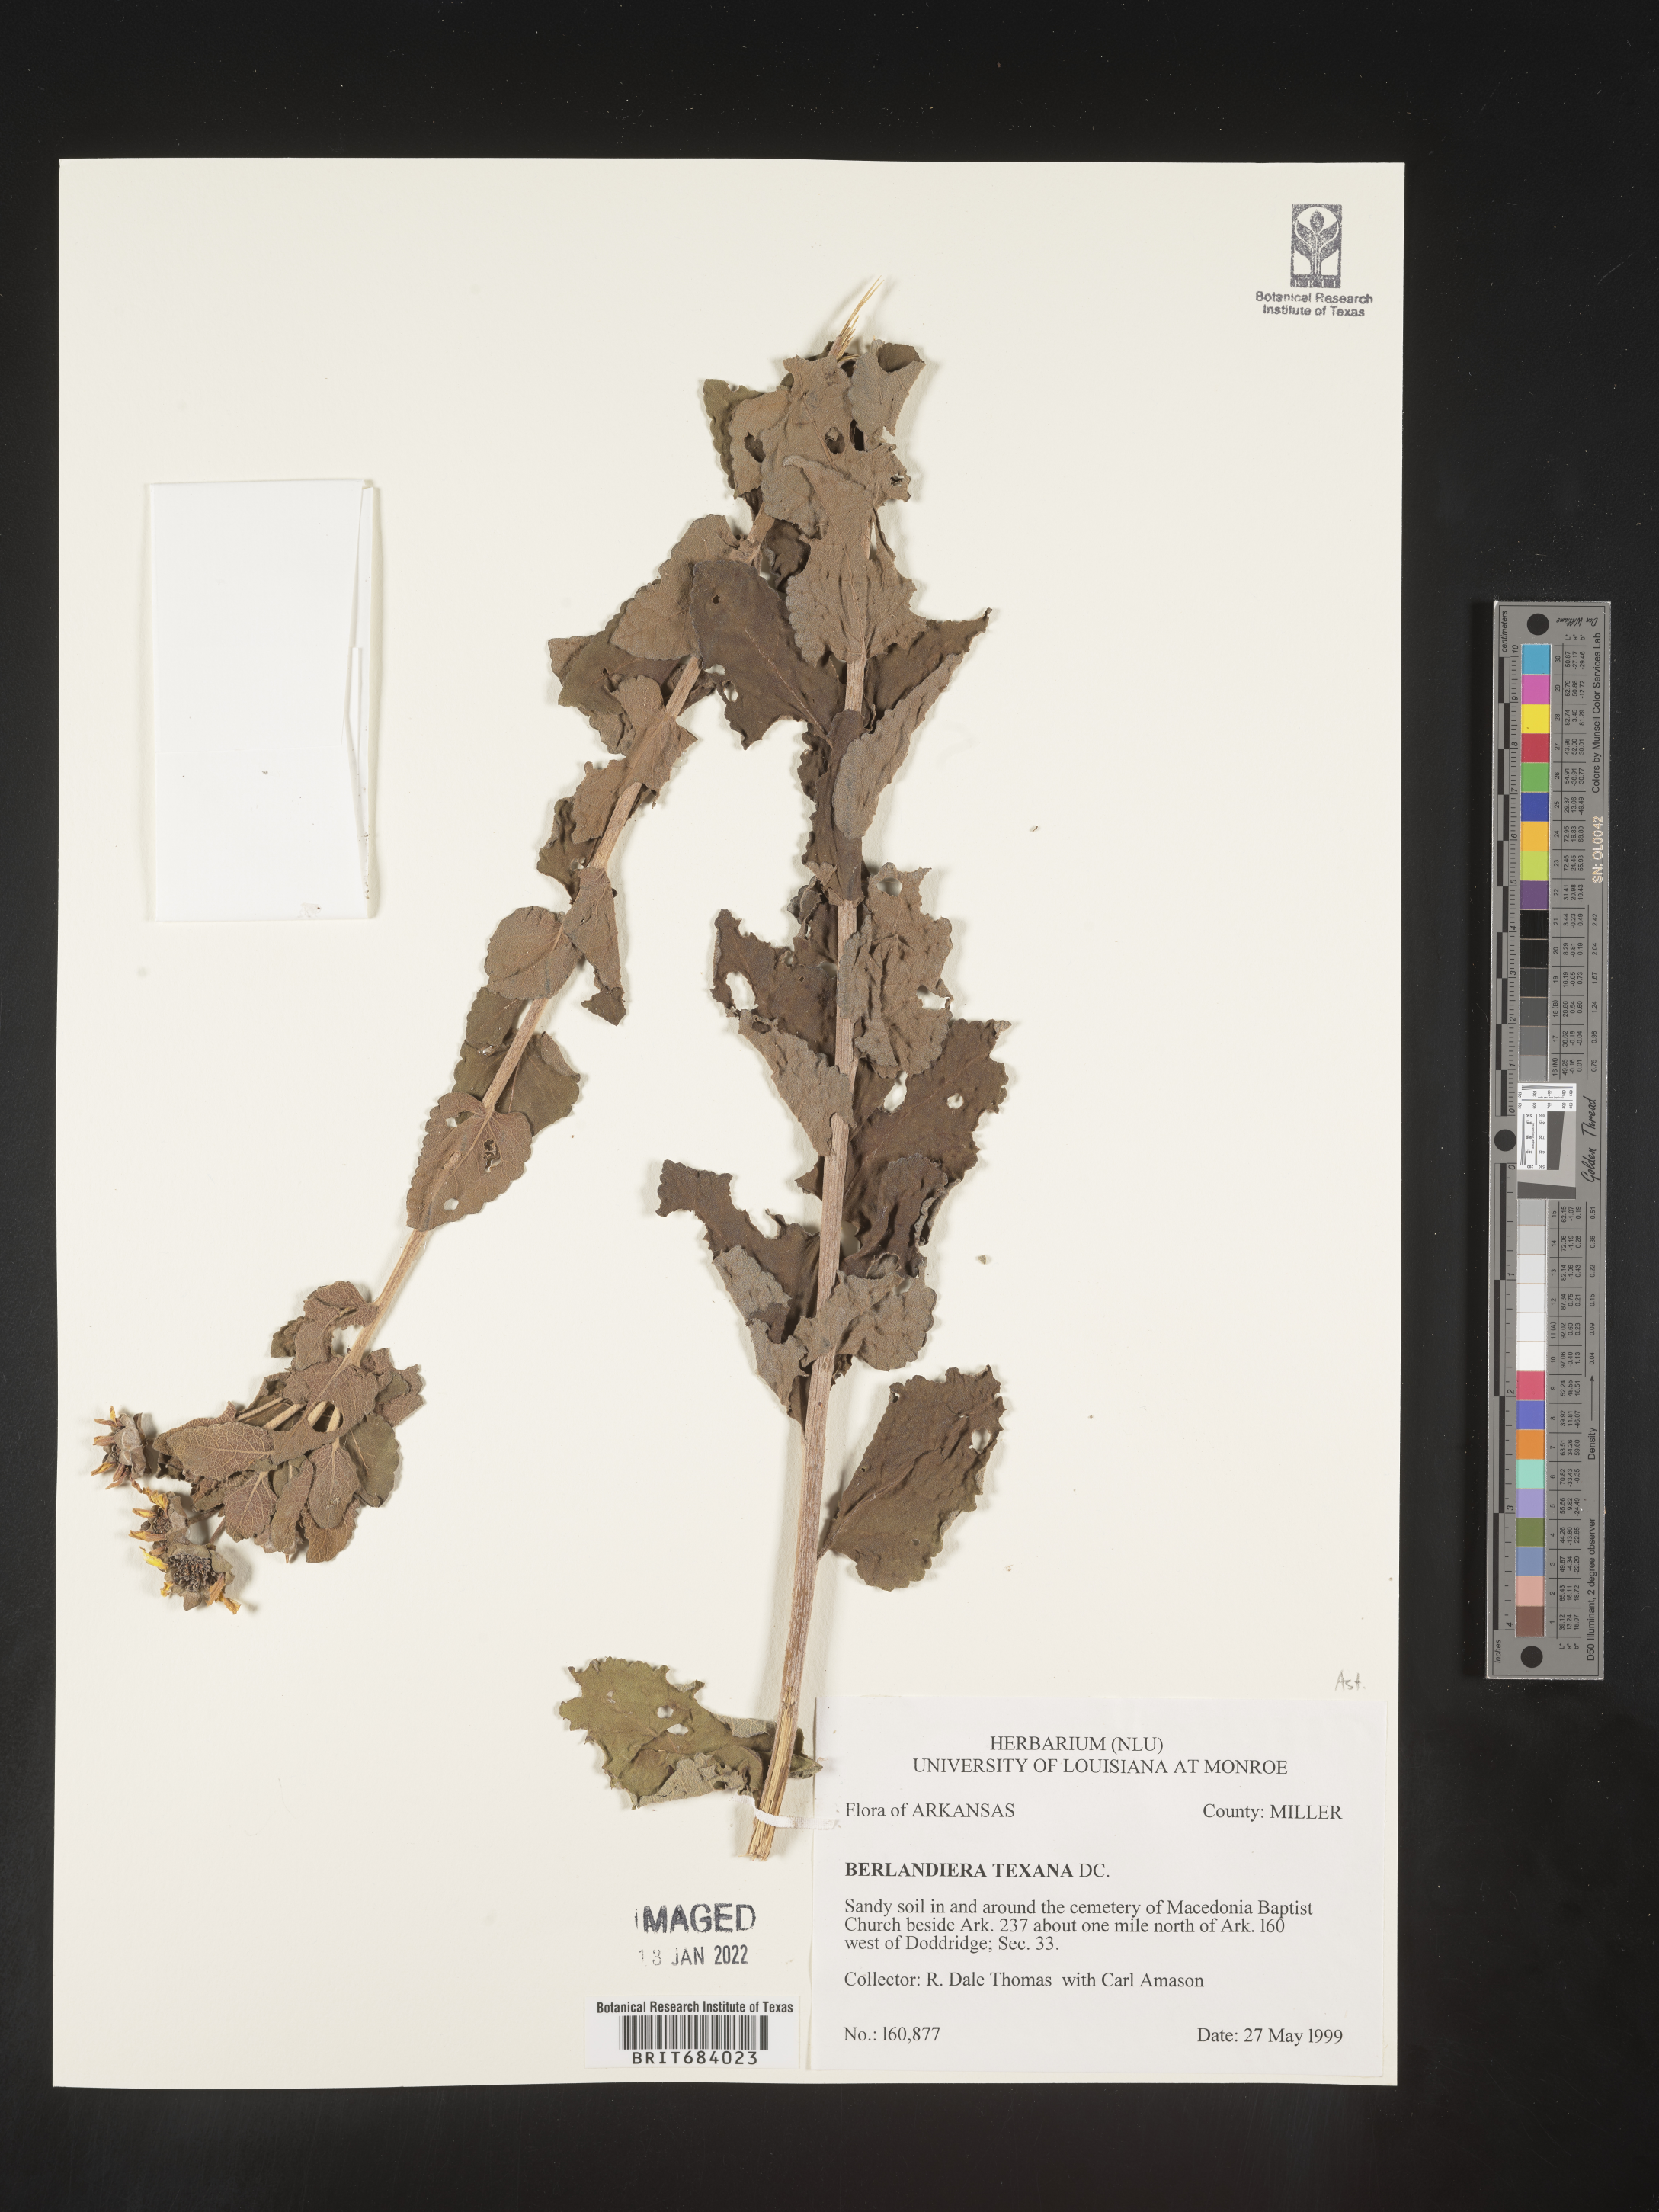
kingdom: Plantae
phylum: Tracheophyta
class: Magnoliopsida
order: Asterales
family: Asteraceae
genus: Berlandiera
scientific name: Berlandiera pumila
